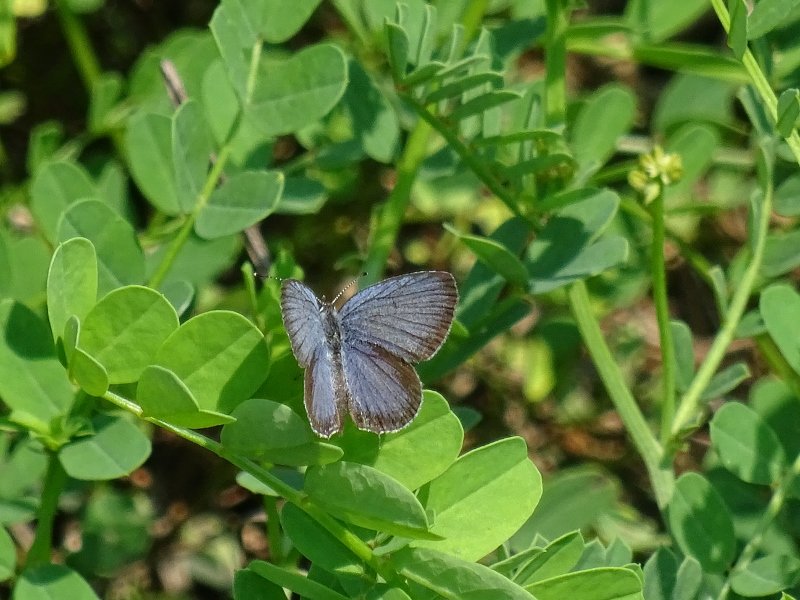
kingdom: Animalia
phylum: Arthropoda
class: Insecta
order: Lepidoptera
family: Lycaenidae
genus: Elkalyce
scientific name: Elkalyce comyntas
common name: Eastern Tailed-Blue
